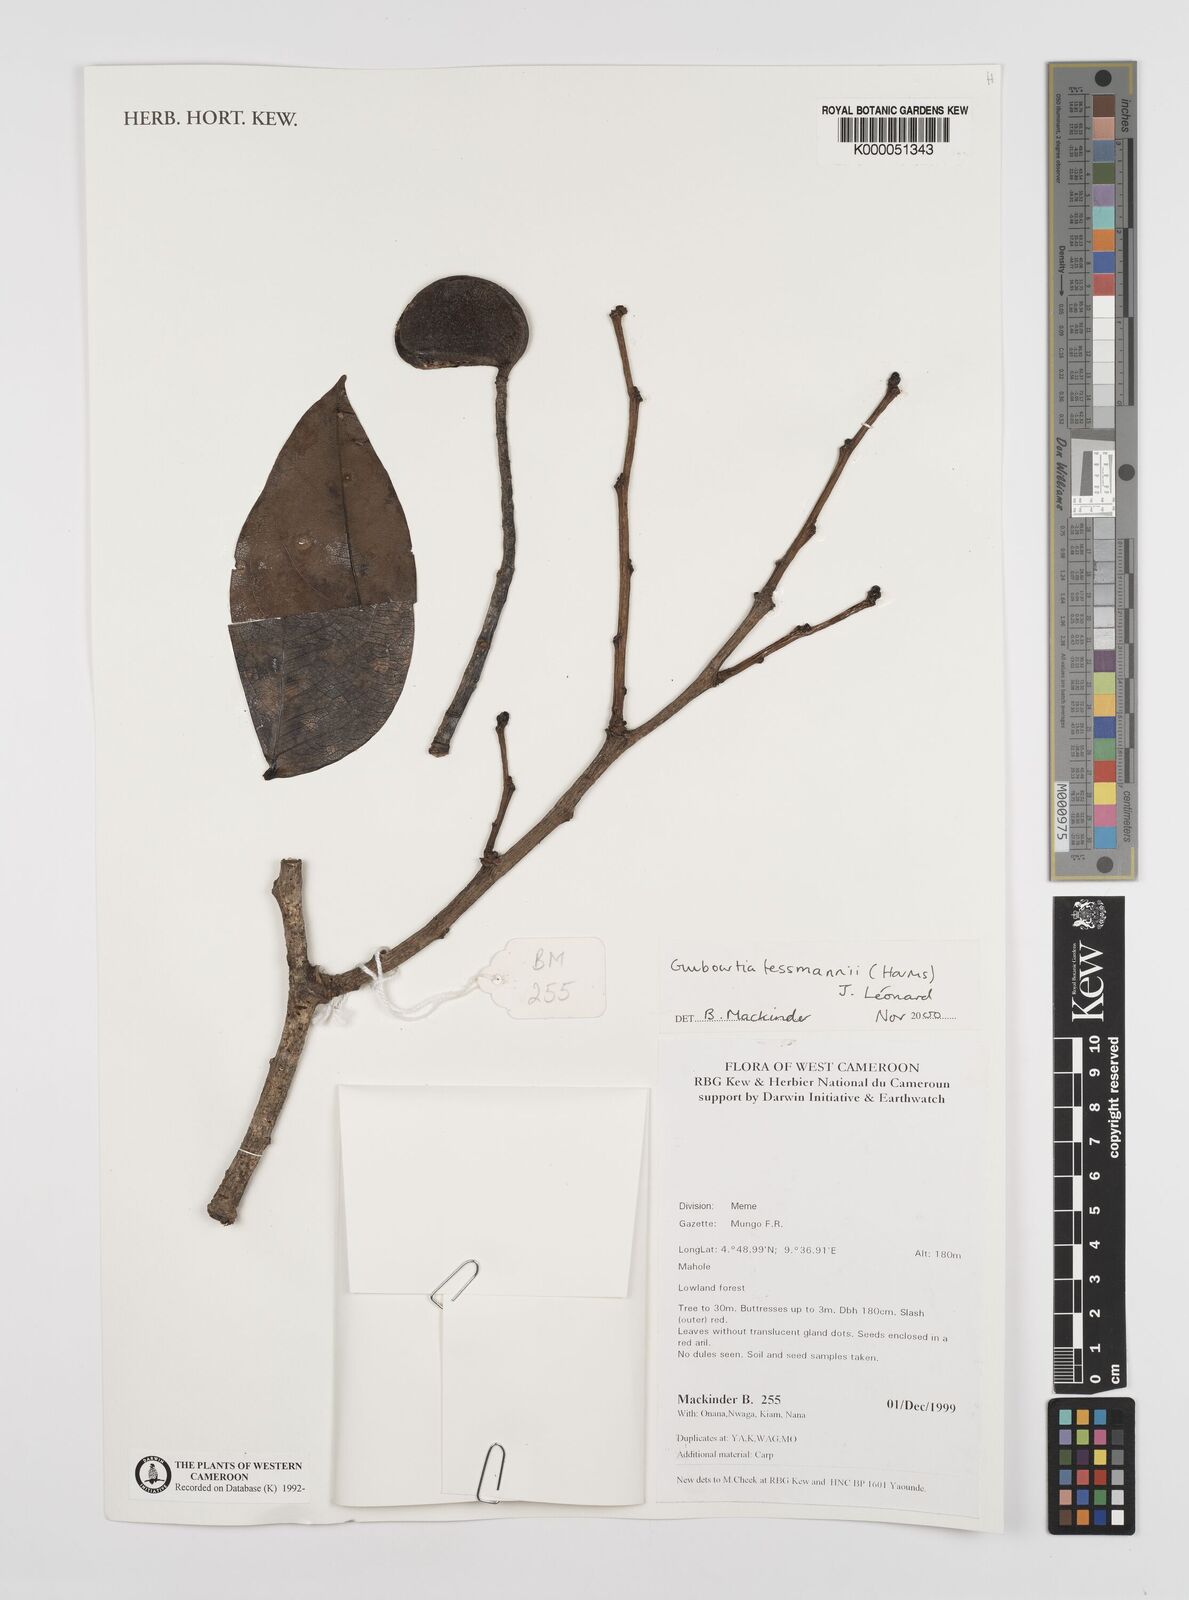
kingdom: Plantae
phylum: Tracheophyta
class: Magnoliopsida
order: Fabales
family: Fabaceae
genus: Guibourtia
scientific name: Guibourtia
